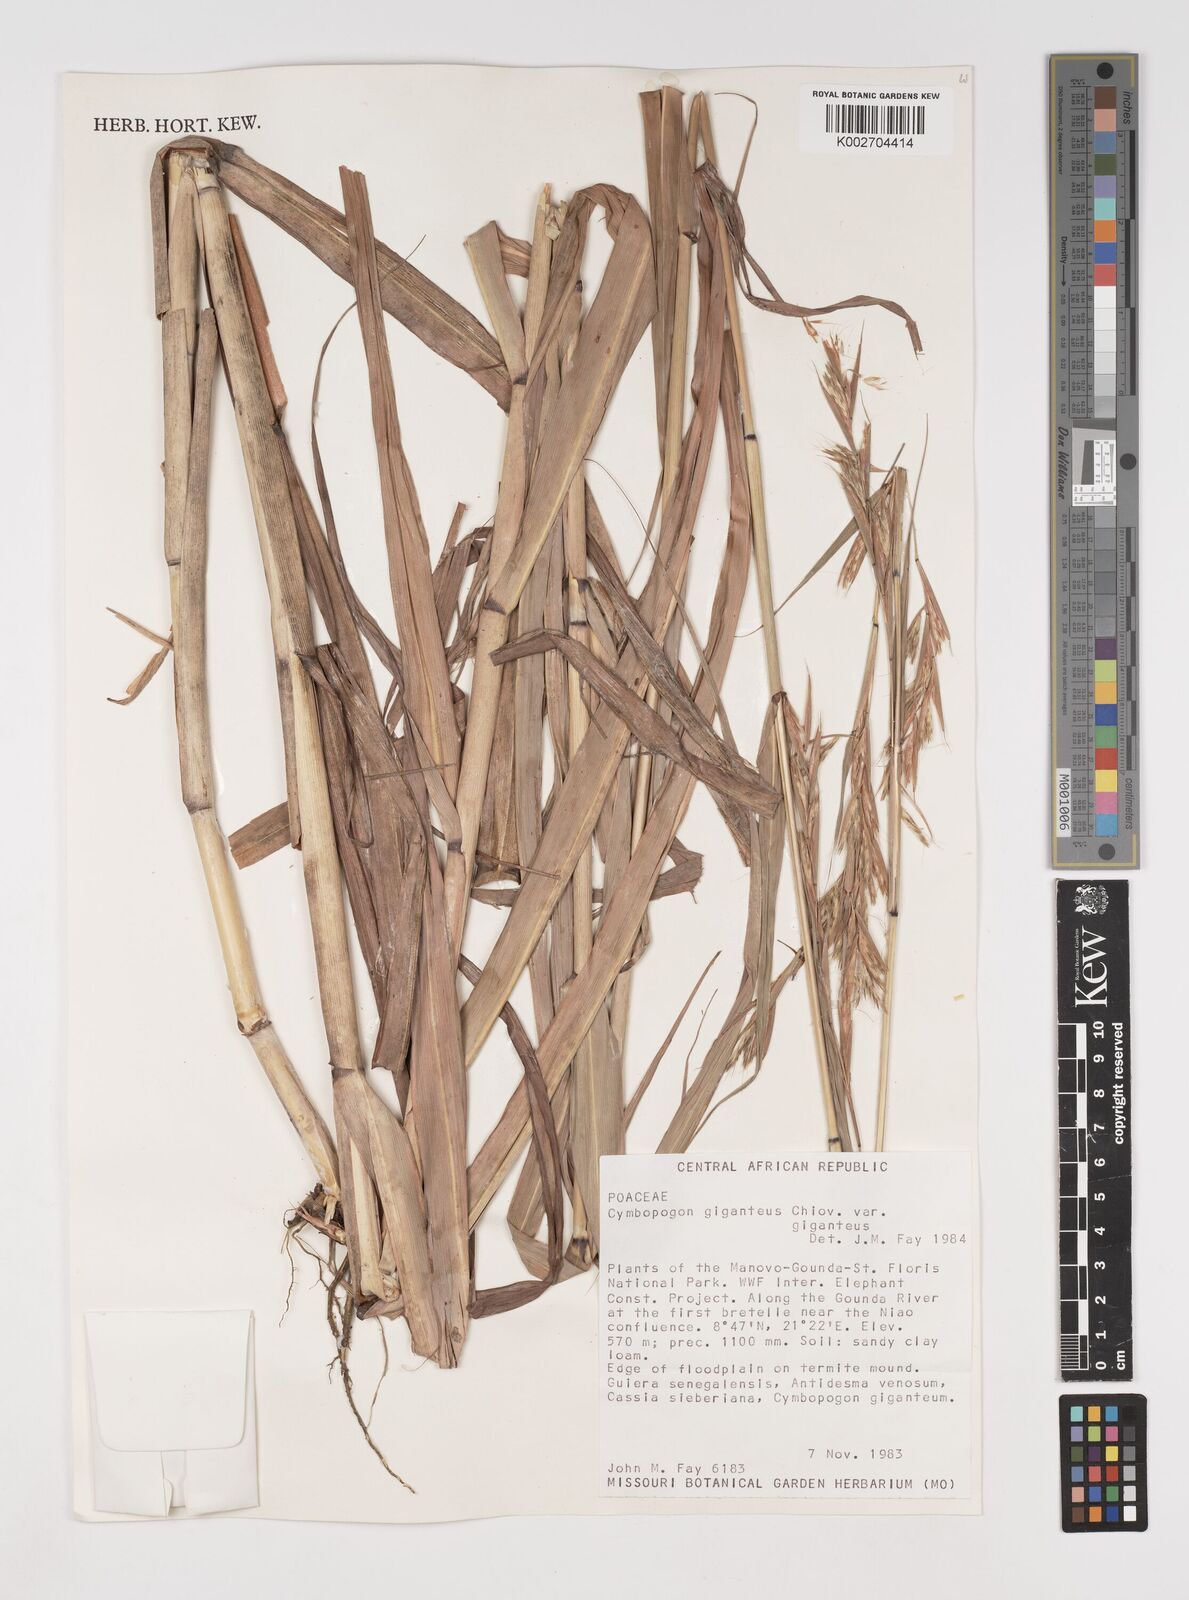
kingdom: Plantae
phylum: Tracheophyta
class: Liliopsida
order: Poales
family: Poaceae
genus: Cymbopogon
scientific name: Cymbopogon giganteus
